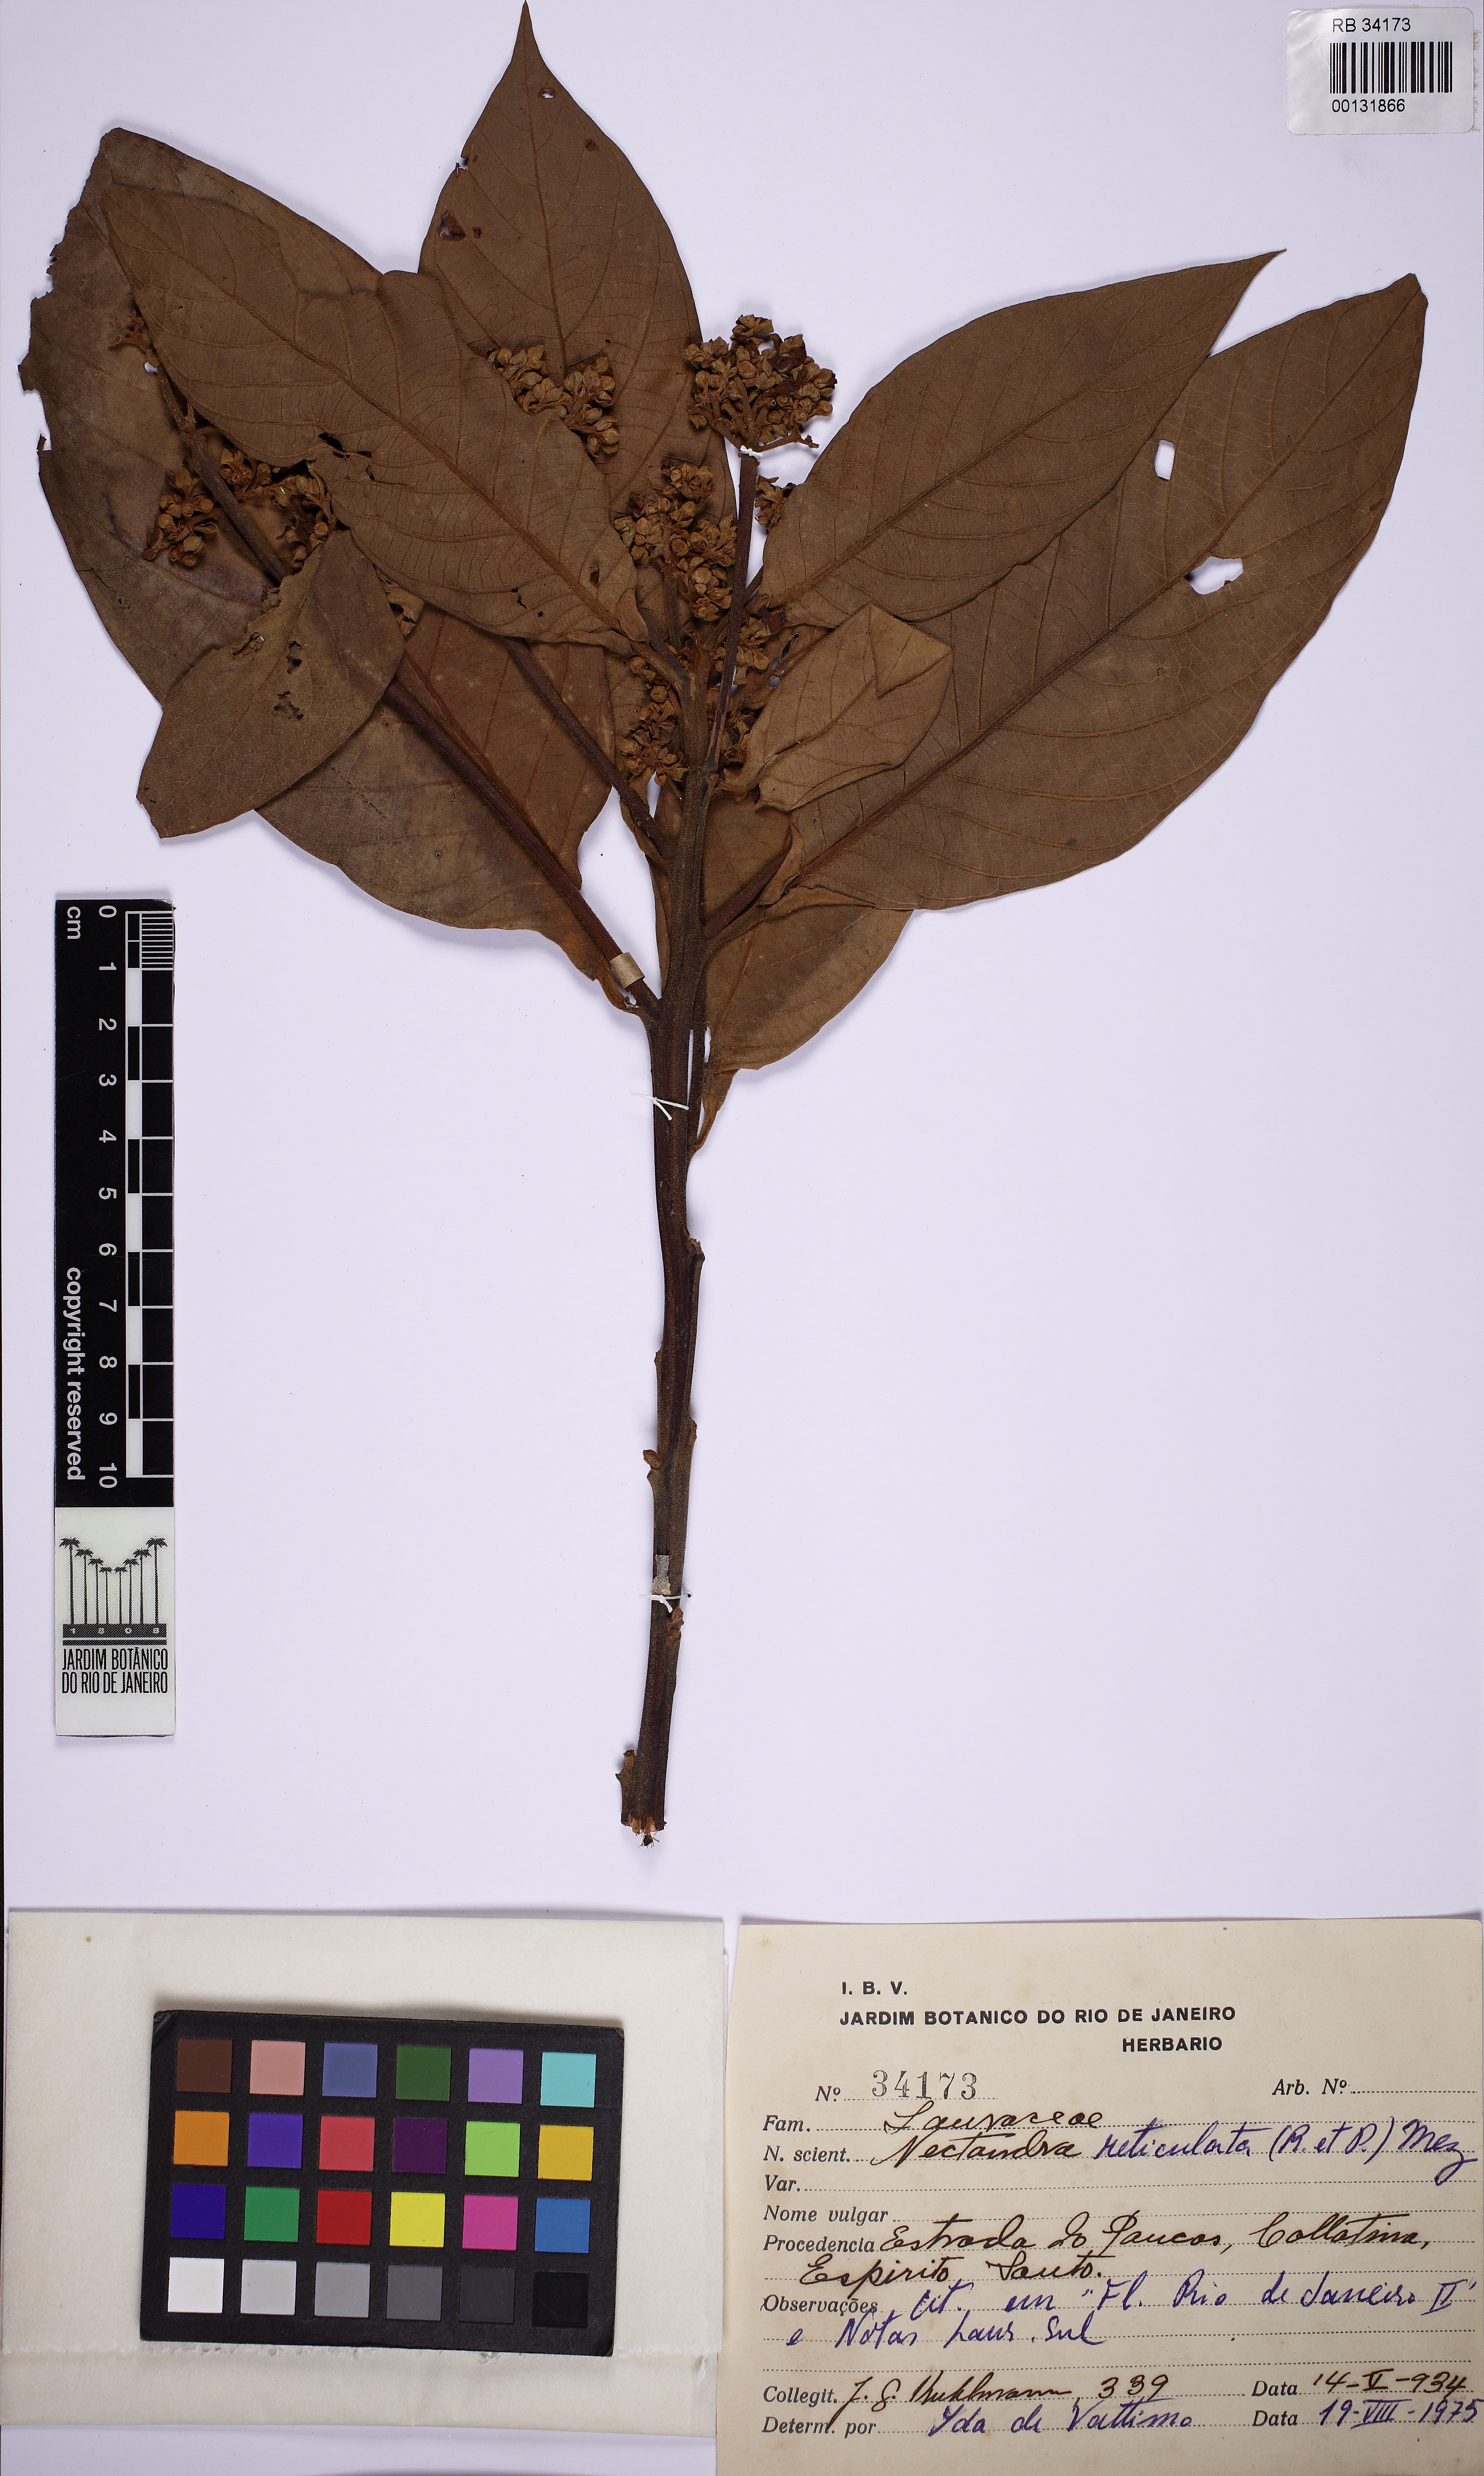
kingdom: Plantae
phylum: Tracheophyta
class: Magnoliopsida
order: Laurales
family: Lauraceae
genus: Nectandra
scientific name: Nectandra villosa
